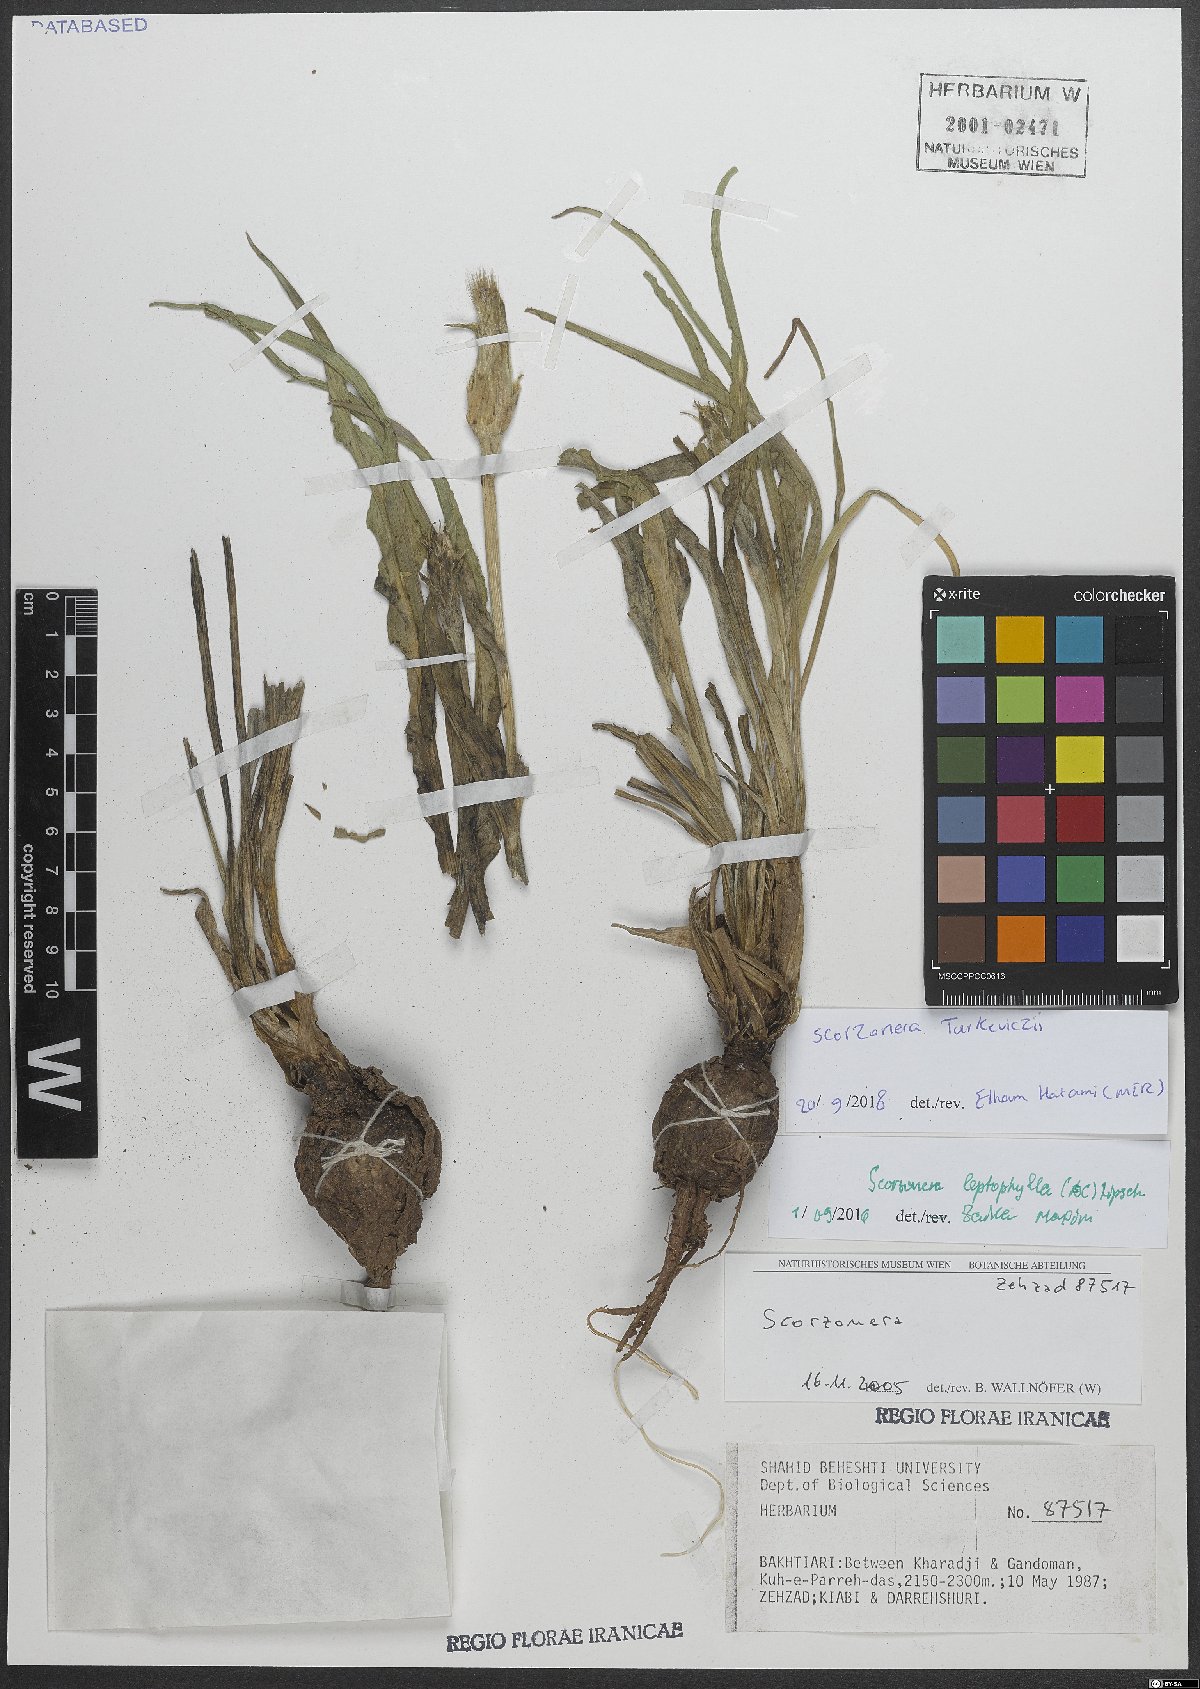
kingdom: Plantae
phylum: Tracheophyta
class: Magnoliopsida
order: Asterales
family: Asteraceae
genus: Pseudopodospermum
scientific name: Pseudopodospermum turkeviczii
